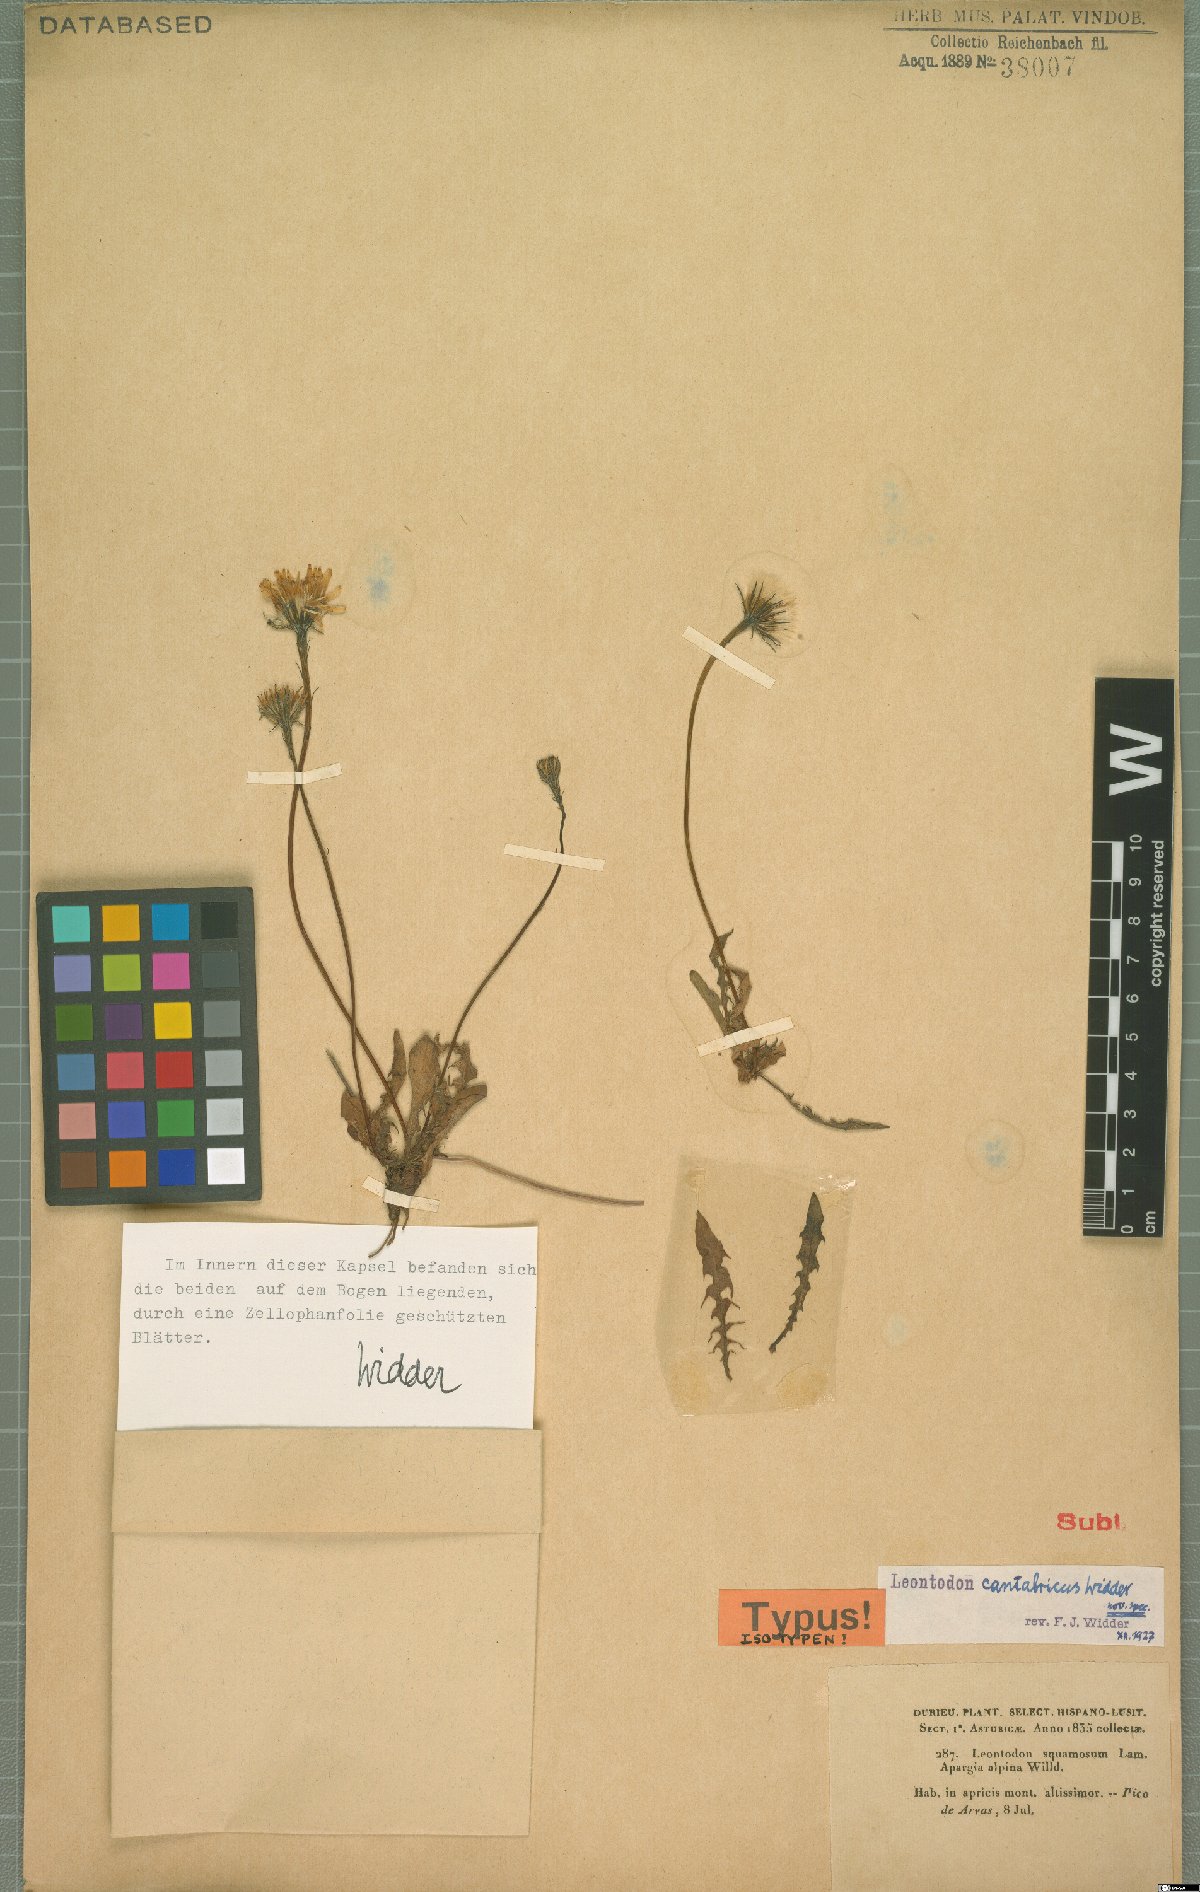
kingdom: Plantae
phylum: Tracheophyta
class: Magnoliopsida
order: Asterales
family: Asteraceae
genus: Scorzoneroides
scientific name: Scorzoneroides pyrenaica
